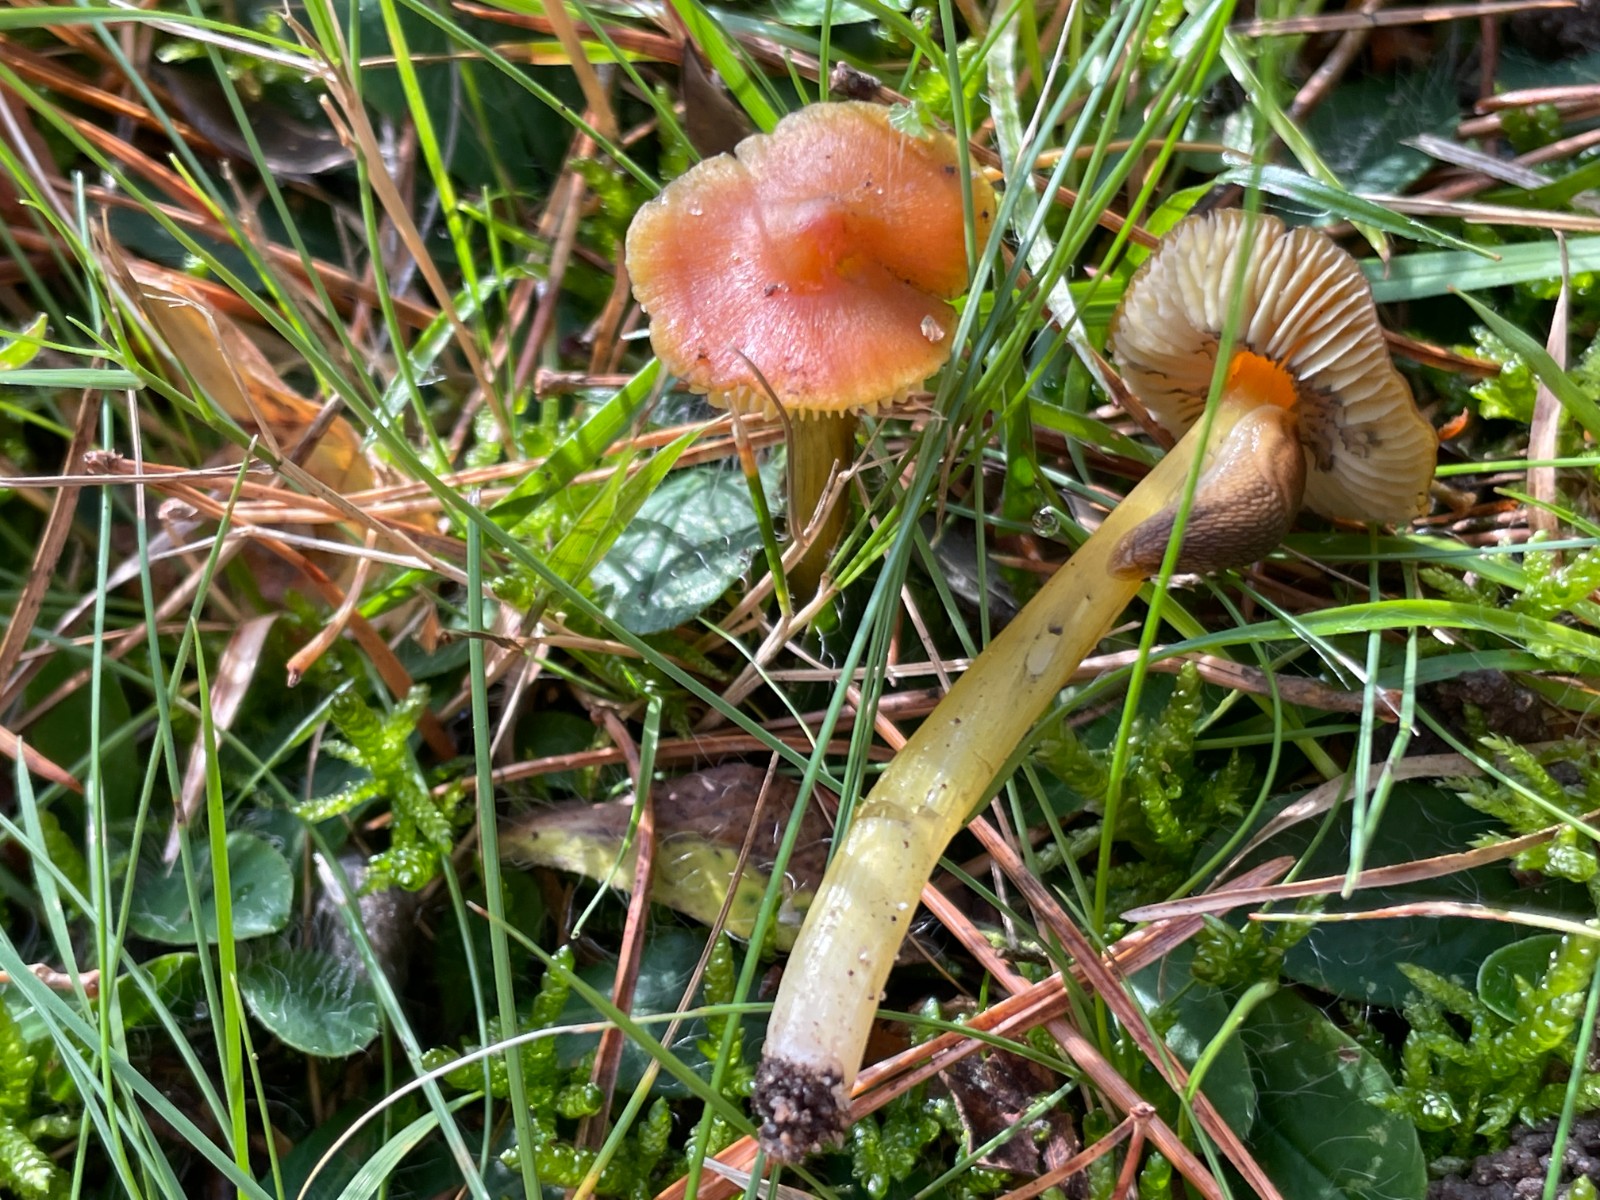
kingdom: Fungi
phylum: Basidiomycota
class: Agaricomycetes
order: Agaricales
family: Hygrophoraceae
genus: Hygrocybe
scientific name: Hygrocybe conica
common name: kegle-vokshat
